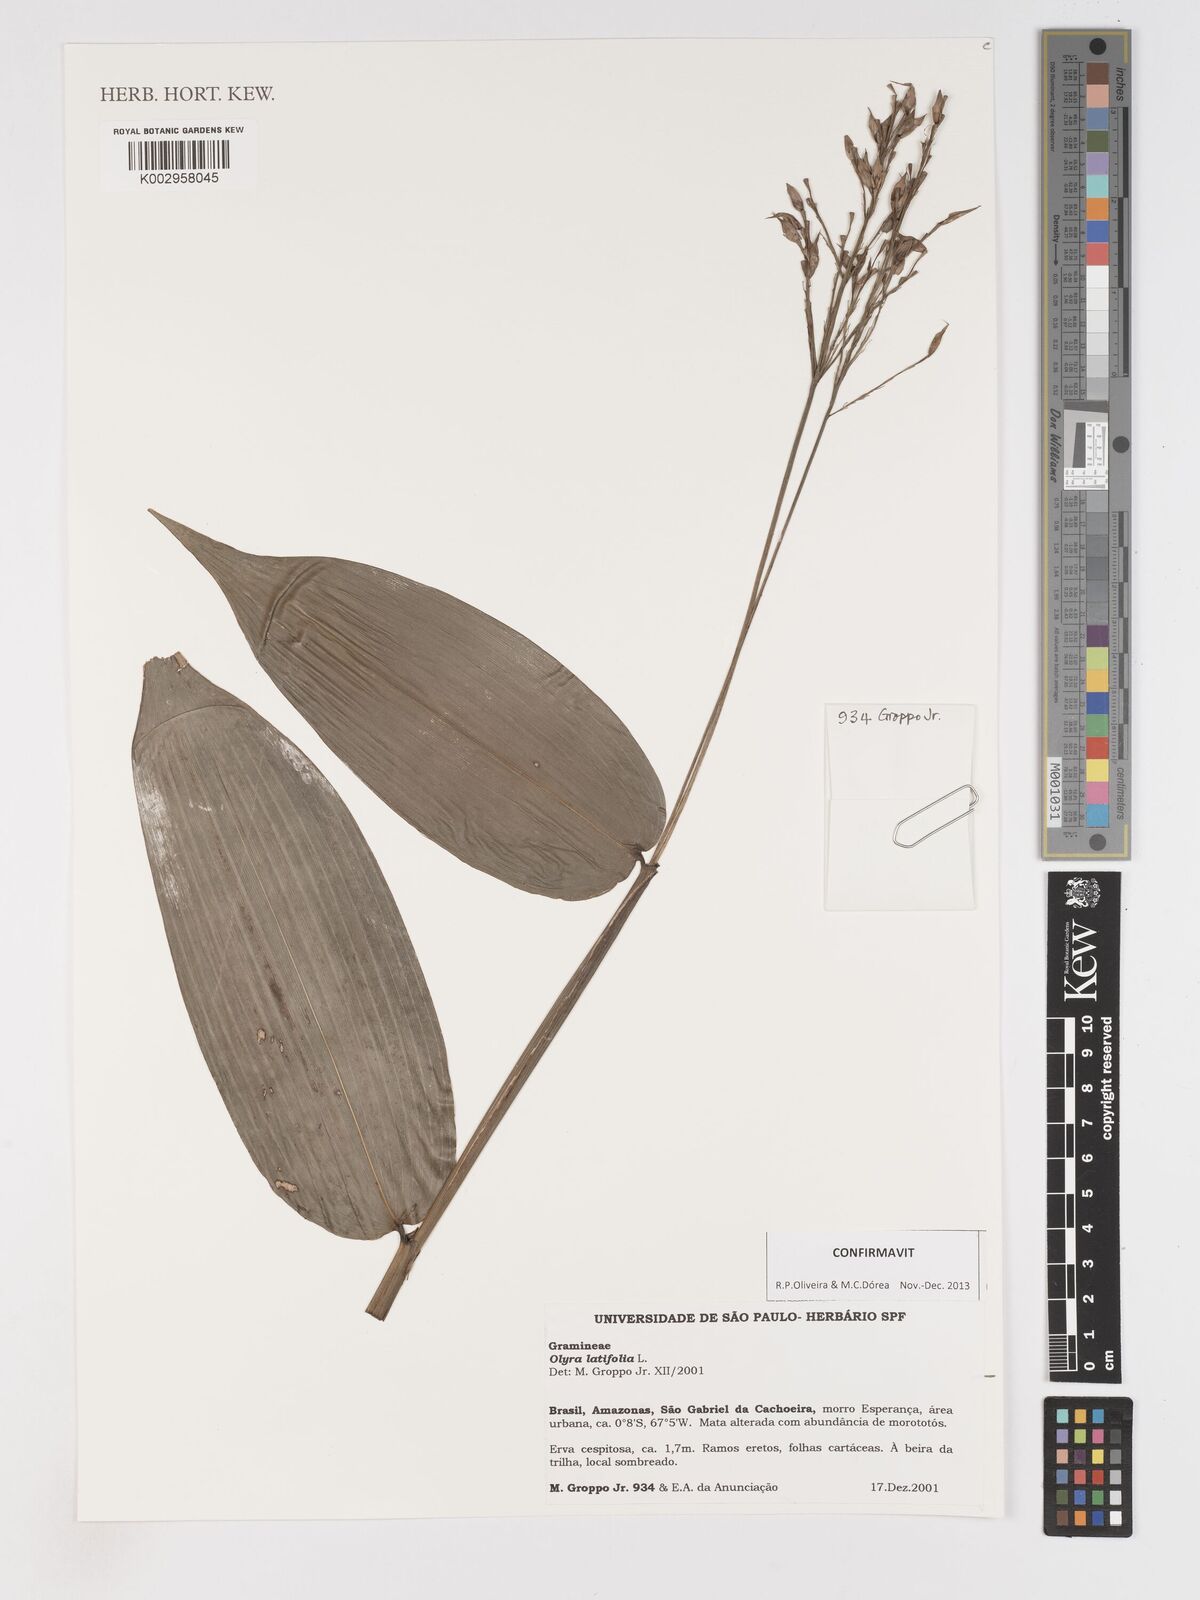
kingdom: Plantae
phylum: Tracheophyta
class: Liliopsida
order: Poales
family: Poaceae
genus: Olyra
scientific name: Olyra latifolia
